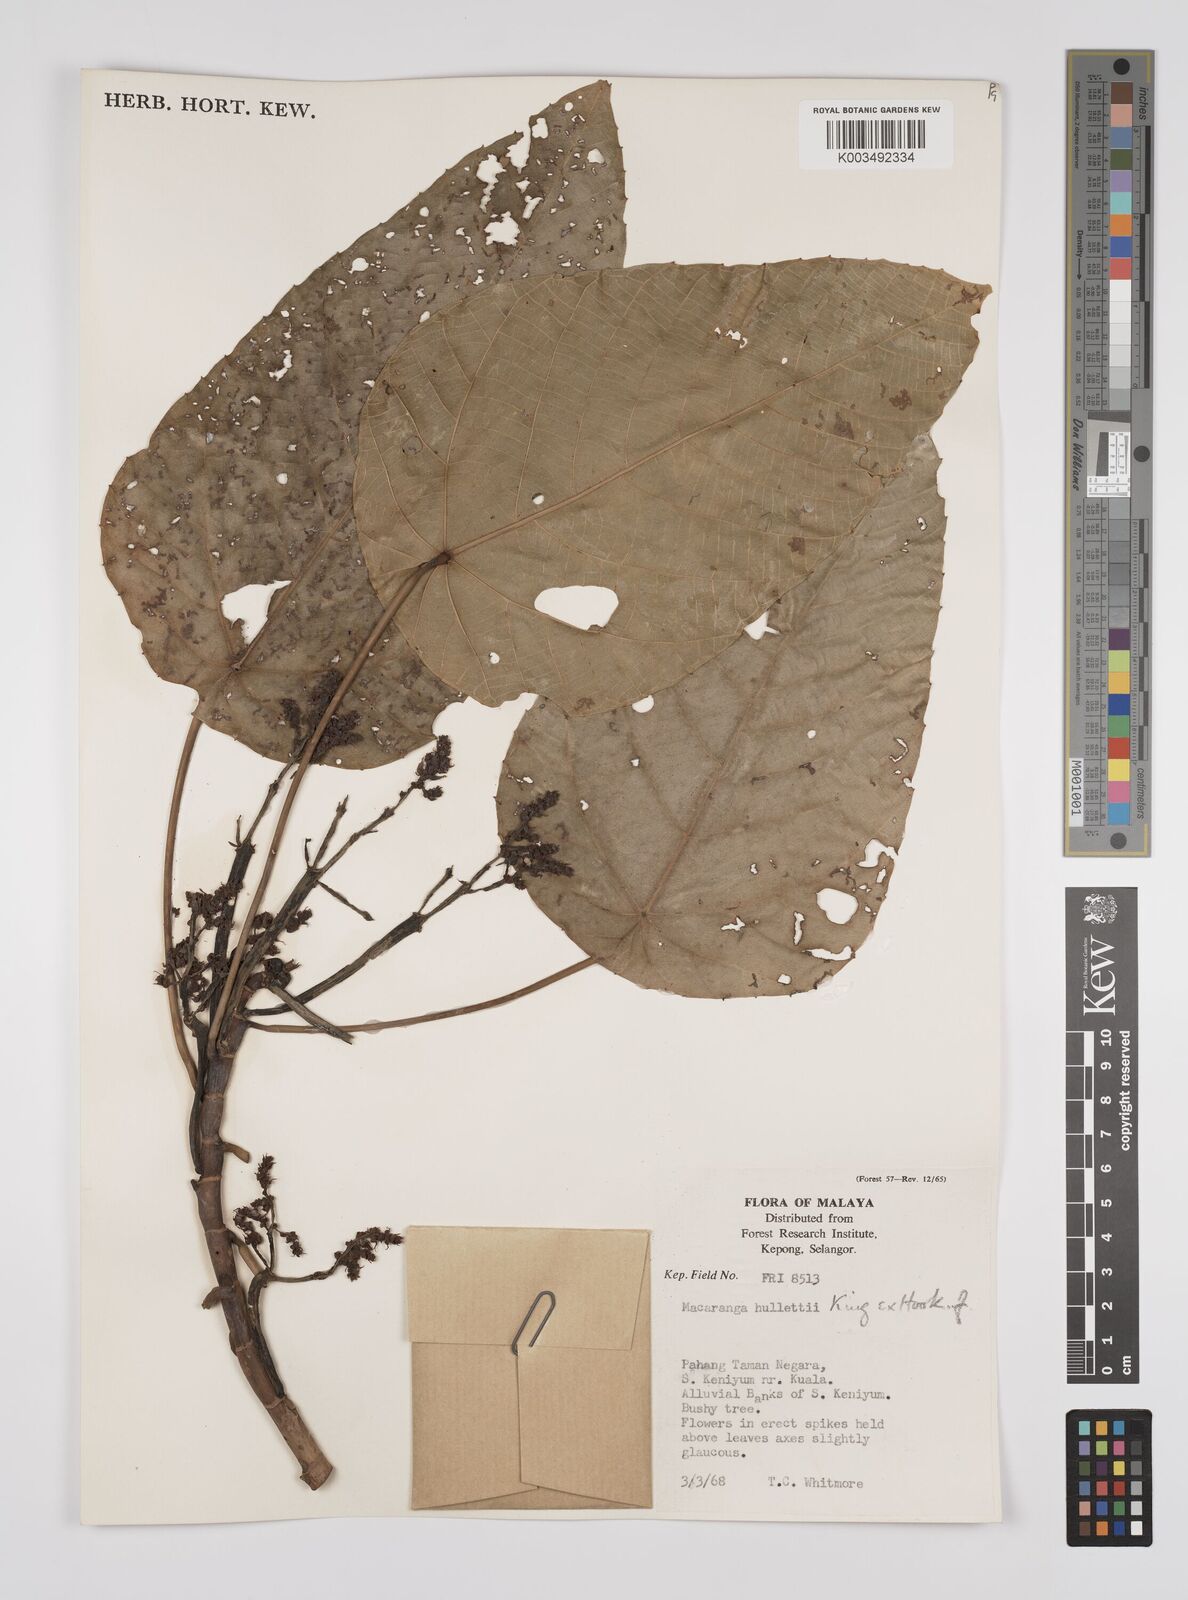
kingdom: Plantae
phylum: Tracheophyta
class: Magnoliopsida
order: Malpighiales
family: Euphorbiaceae
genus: Macaranga
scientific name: Macaranga hullettii
